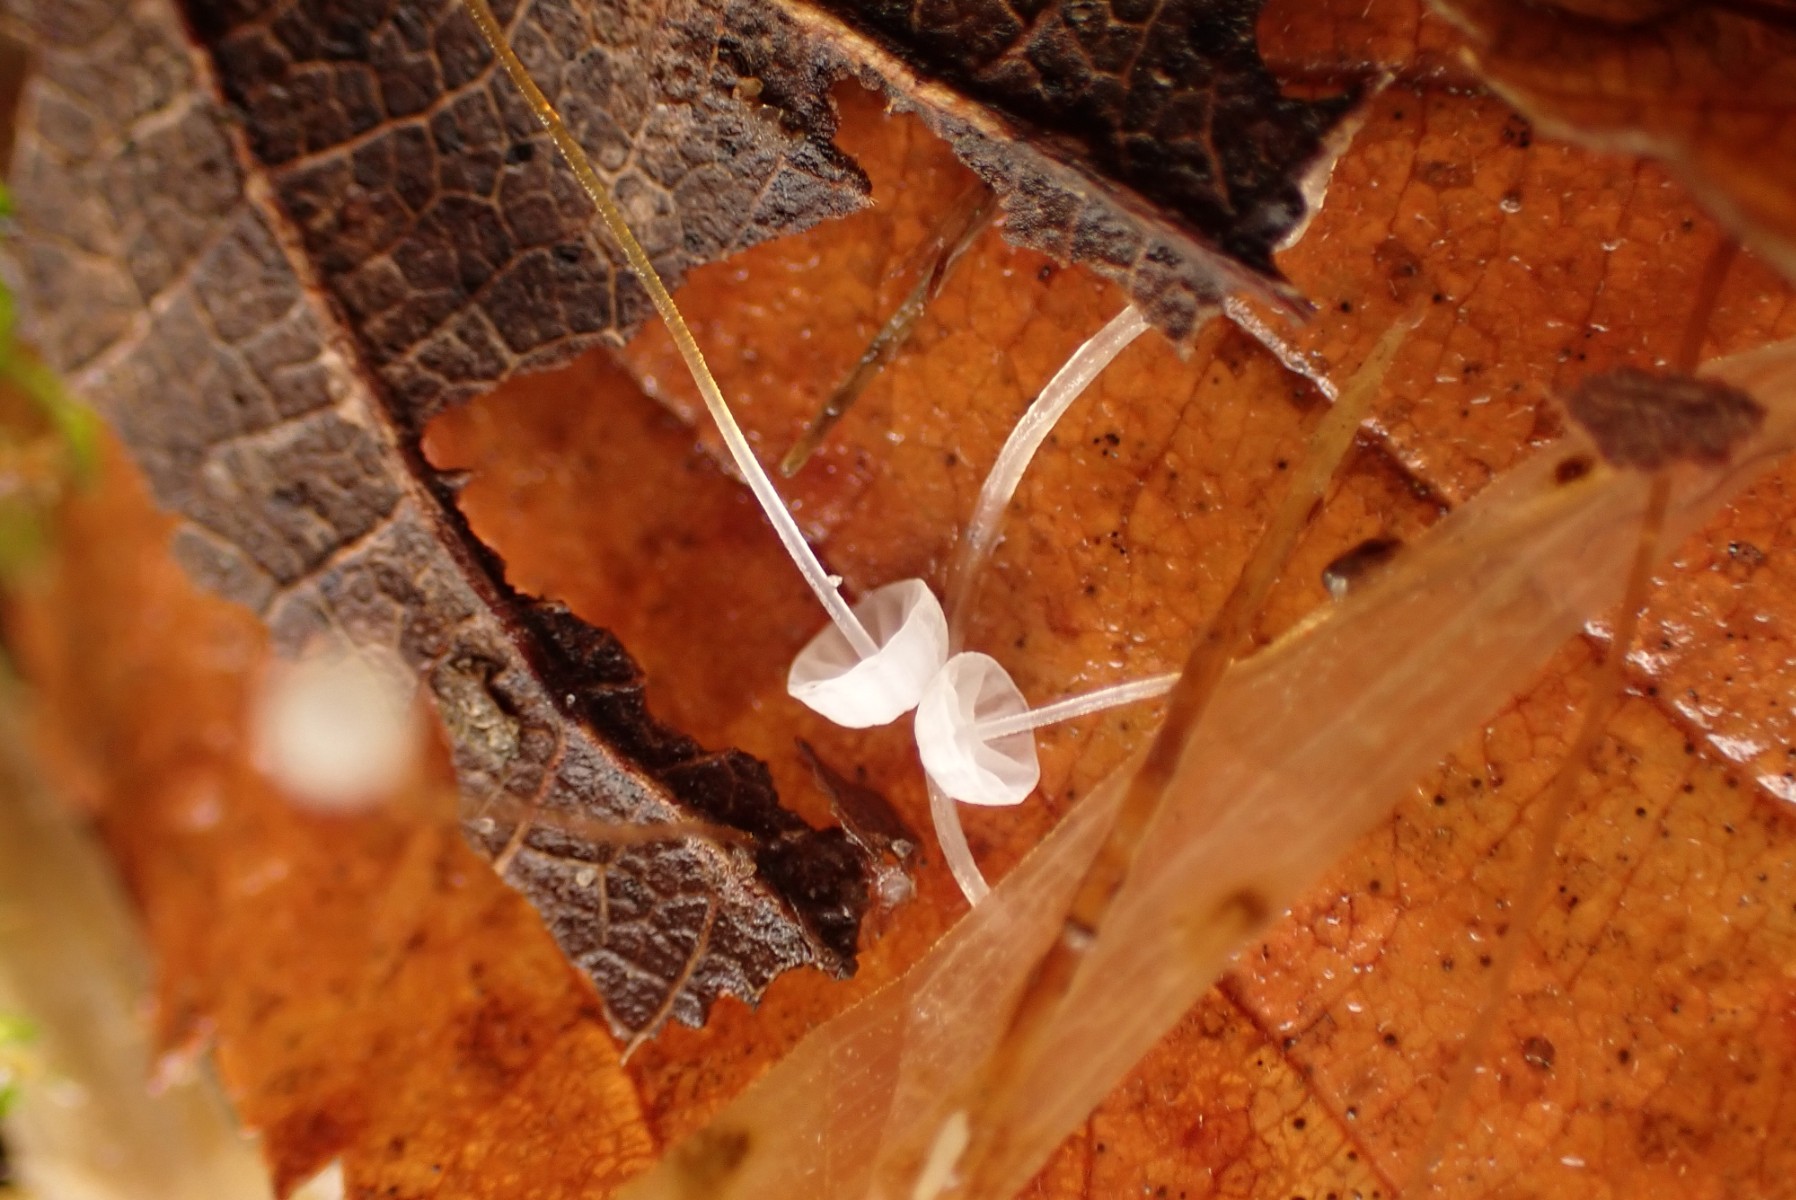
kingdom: Fungi
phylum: Basidiomycota
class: Agaricomycetes
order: Agaricales
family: Physalacriaceae
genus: Rhizomarasmius
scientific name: Rhizomarasmius setosus
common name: bøgeblads-bruskhat
